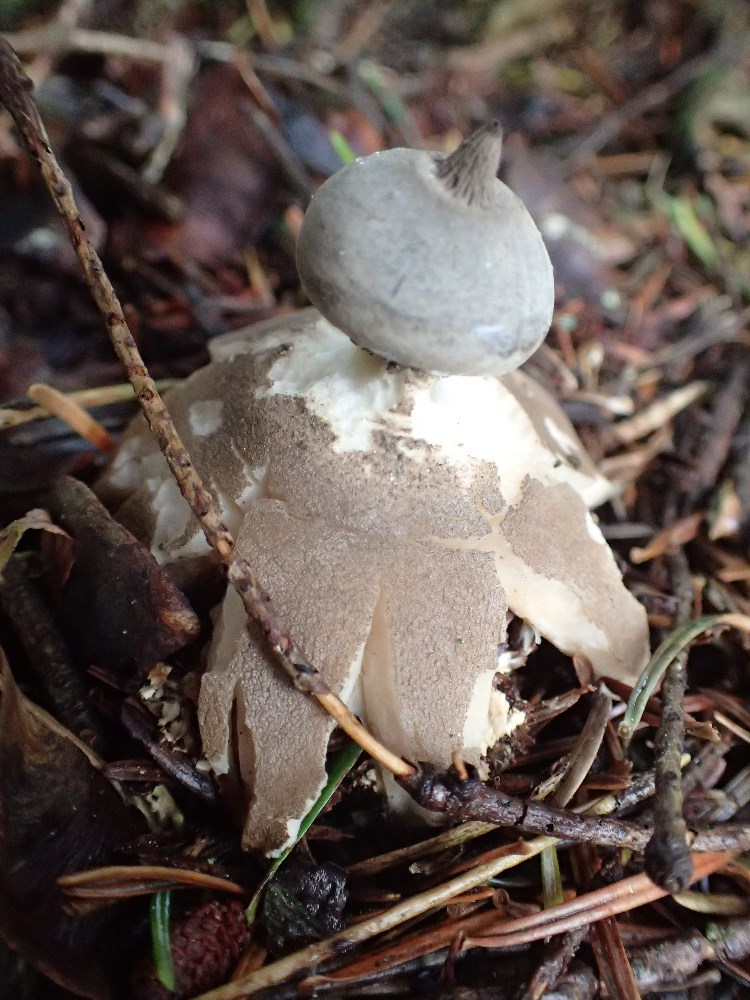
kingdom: Fungi
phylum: Basidiomycota
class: Agaricomycetes
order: Geastrales
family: Geastraceae
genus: Geastrum
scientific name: Geastrum pectinatum
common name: stilket stjernebold
